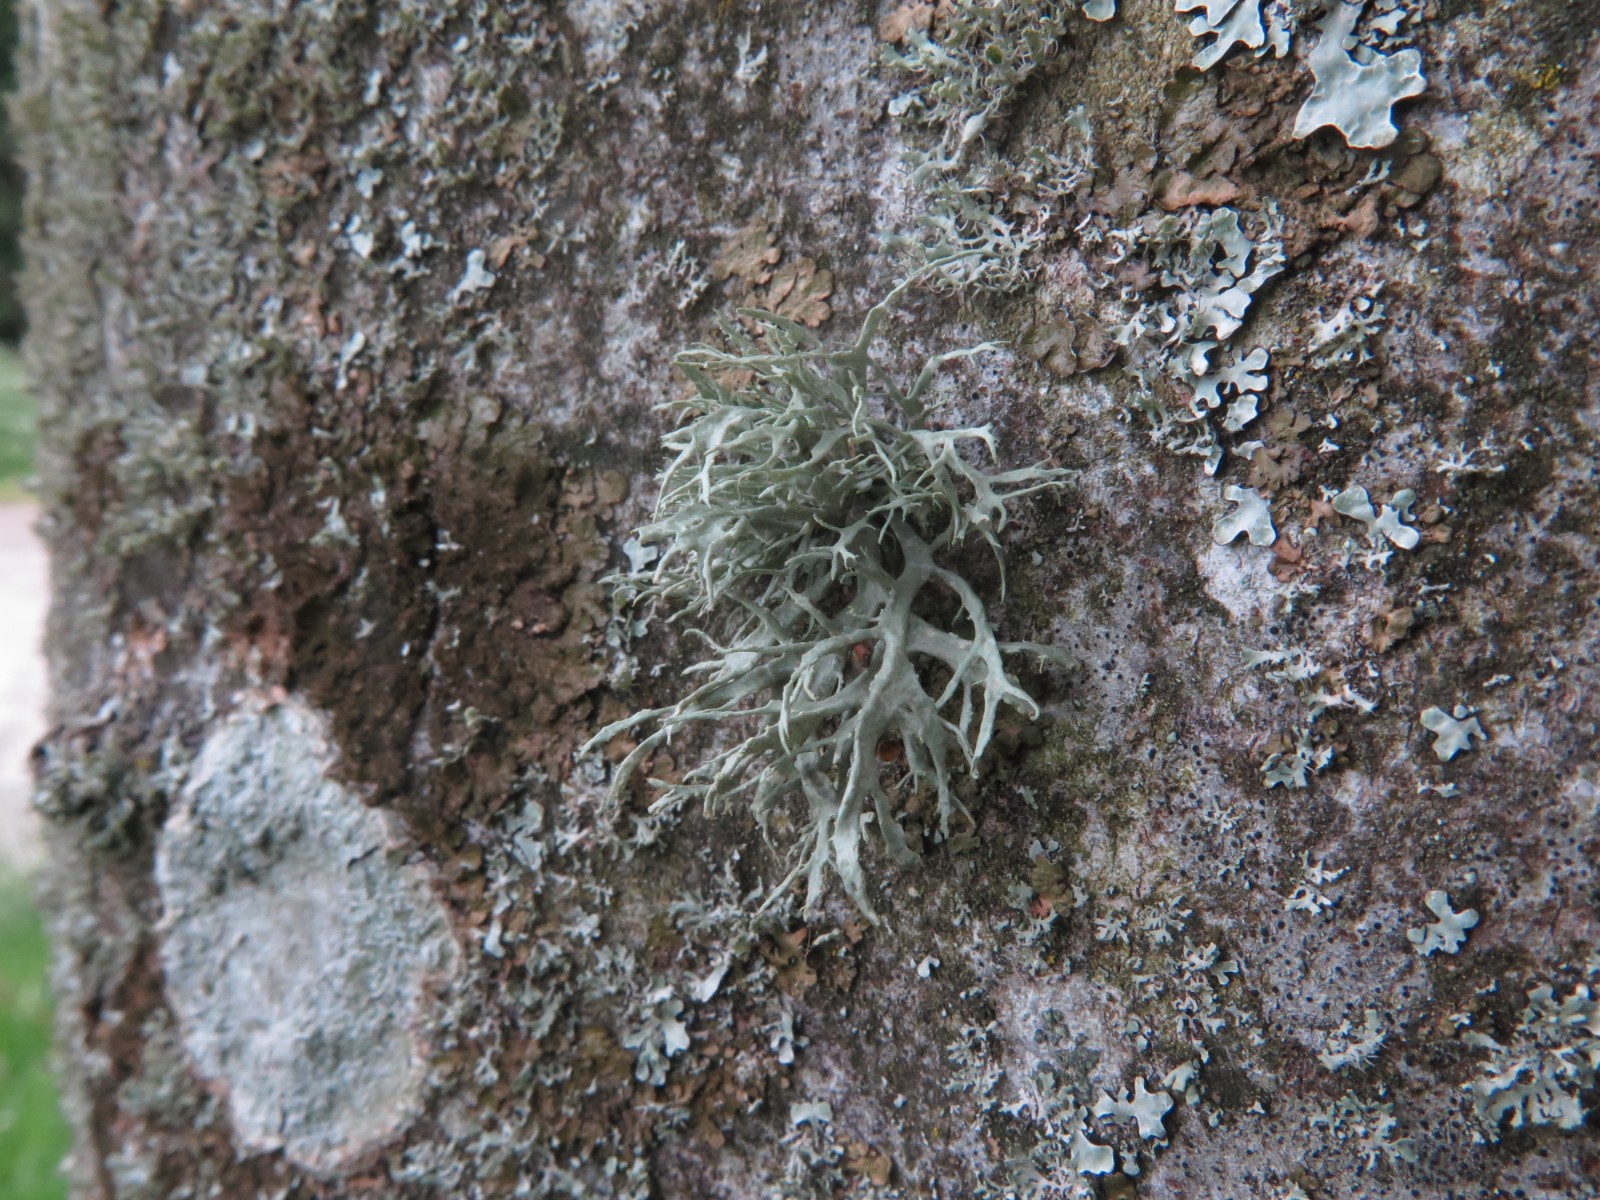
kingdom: Fungi
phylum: Ascomycota
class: Lecanoromycetes
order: Lecanorales
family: Parmeliaceae
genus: Evernia
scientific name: Evernia prunastri
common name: almindelig slåenlav
